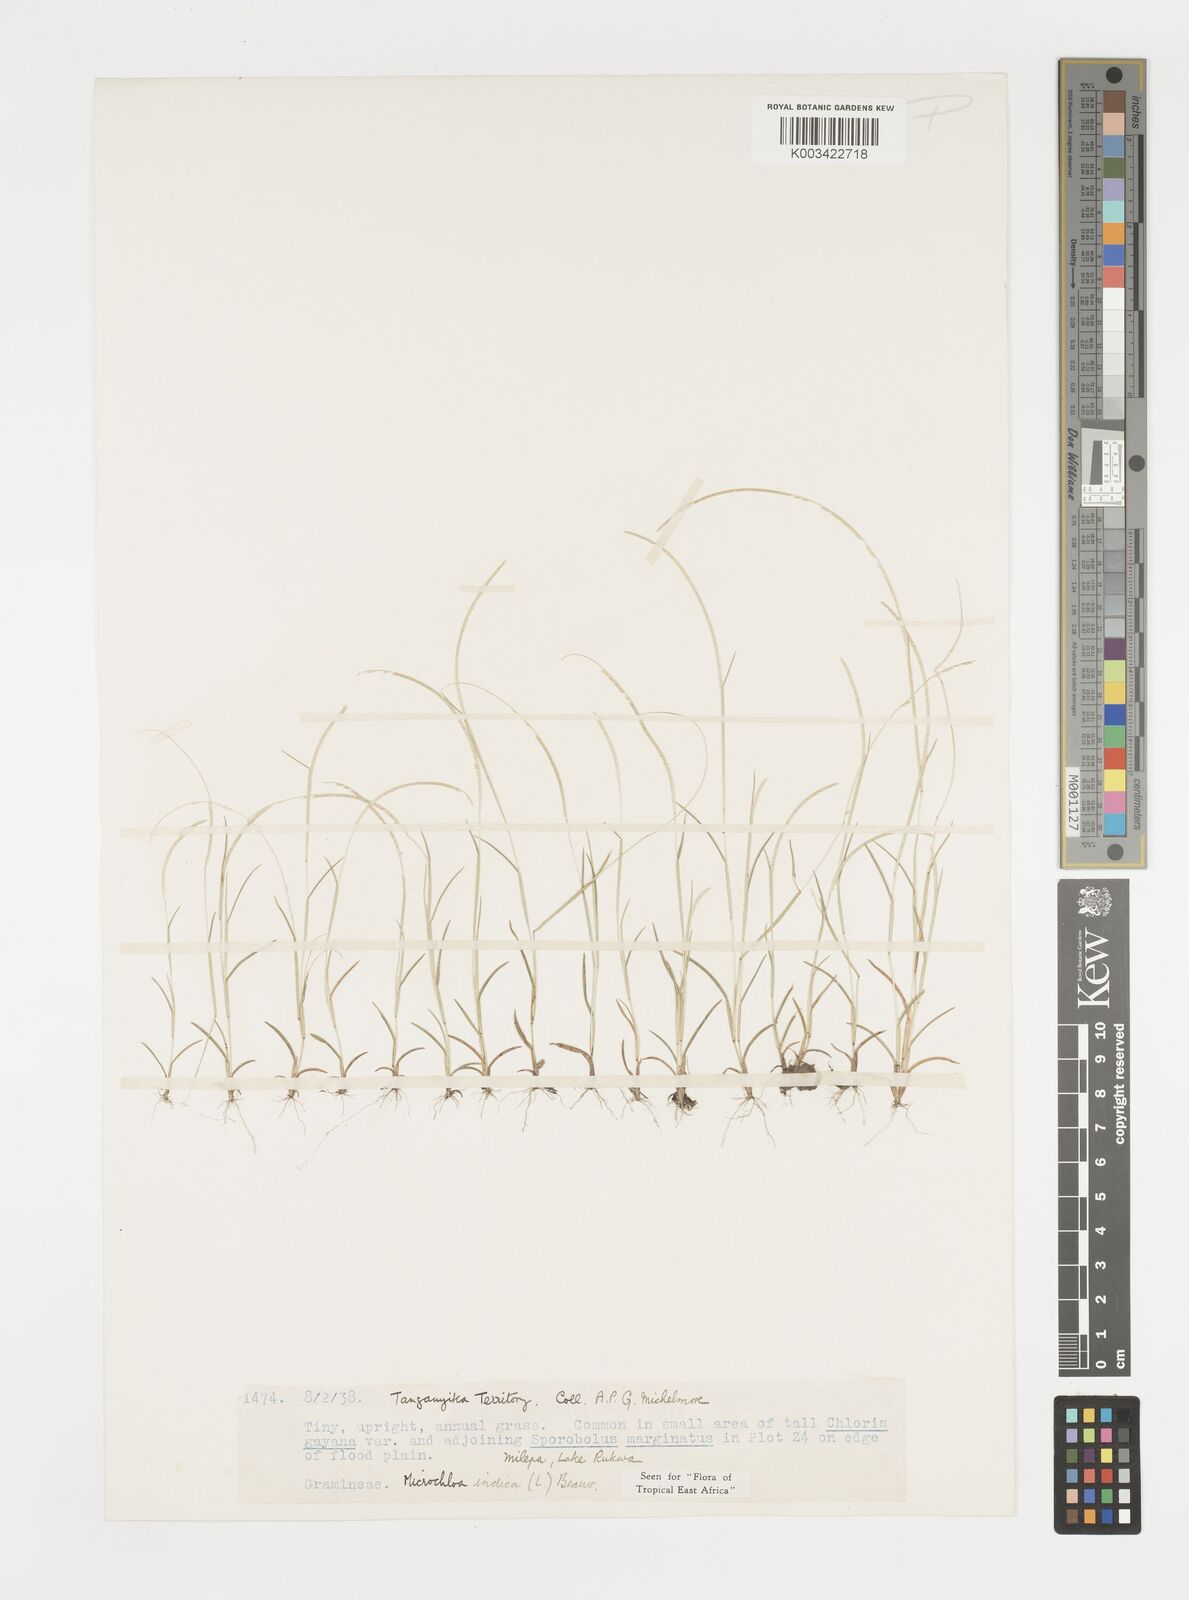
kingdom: Plantae
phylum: Tracheophyta
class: Liliopsida
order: Poales
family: Poaceae
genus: Microchloa
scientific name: Microchloa indica
